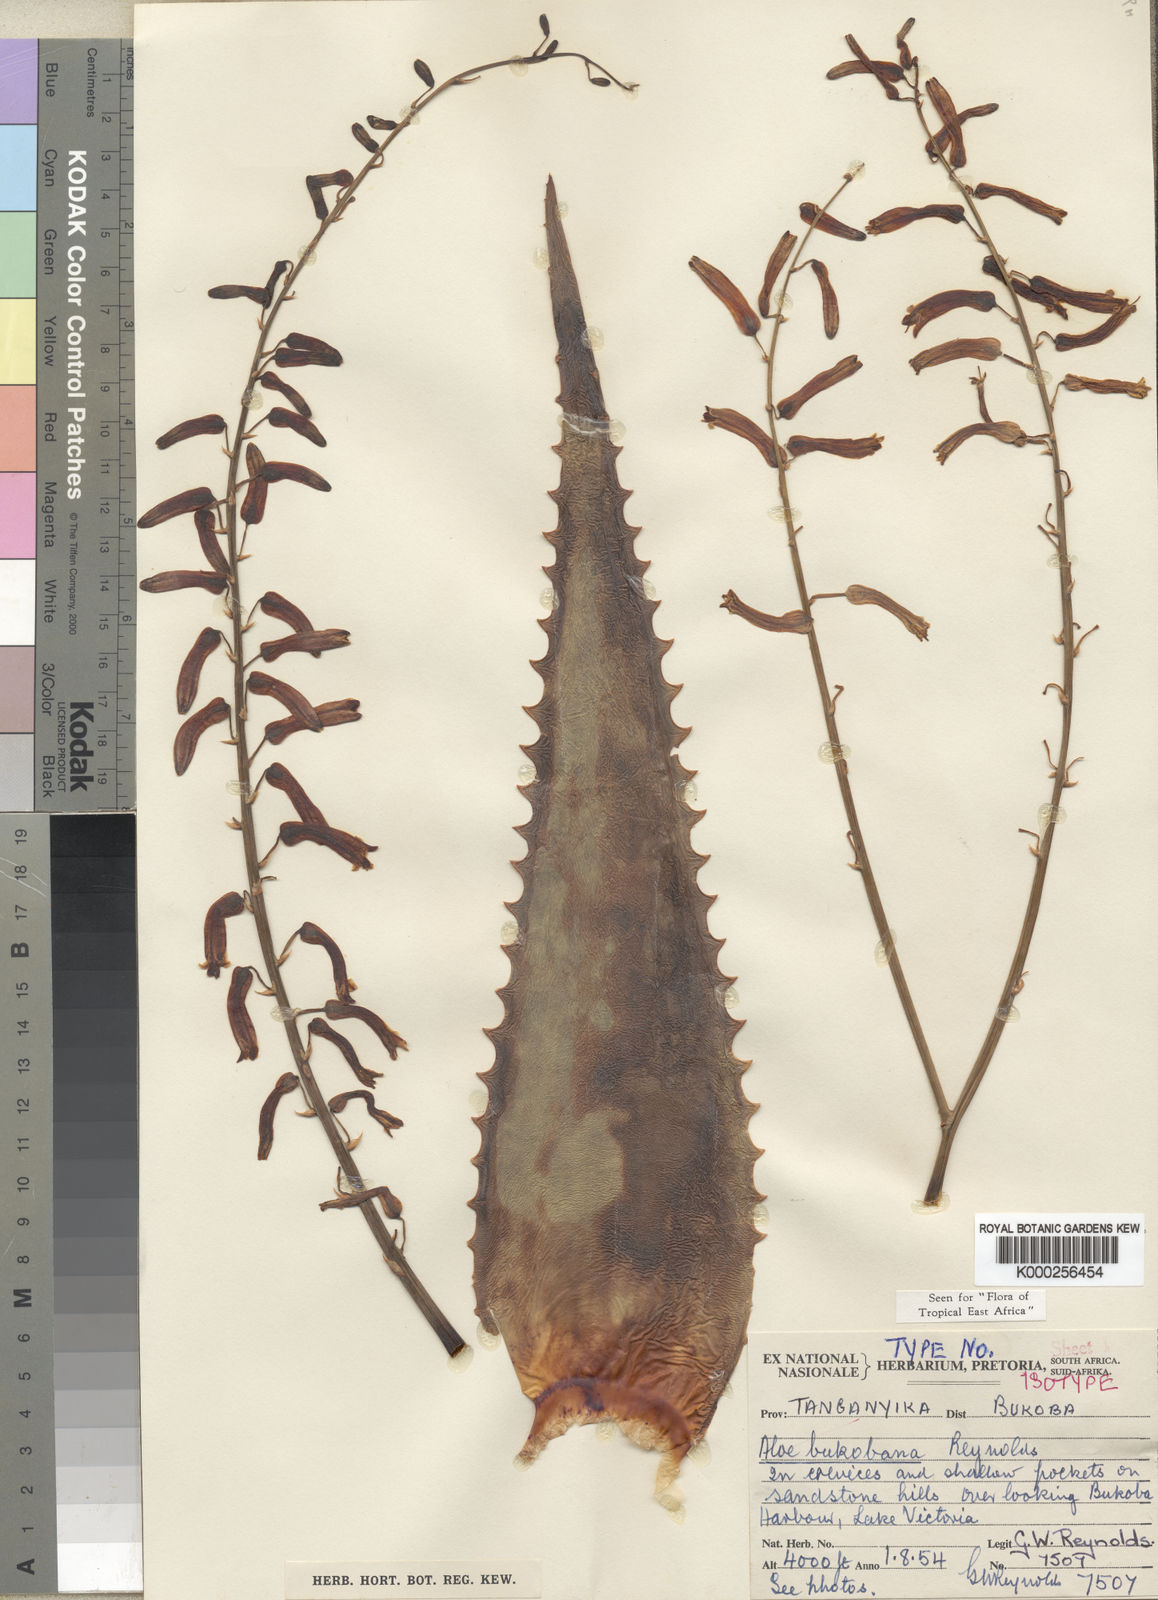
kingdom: Plantae
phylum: Tracheophyta
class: Liliopsida
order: Asparagales
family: Asphodelaceae
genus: Aloe
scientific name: Aloe bukobana
